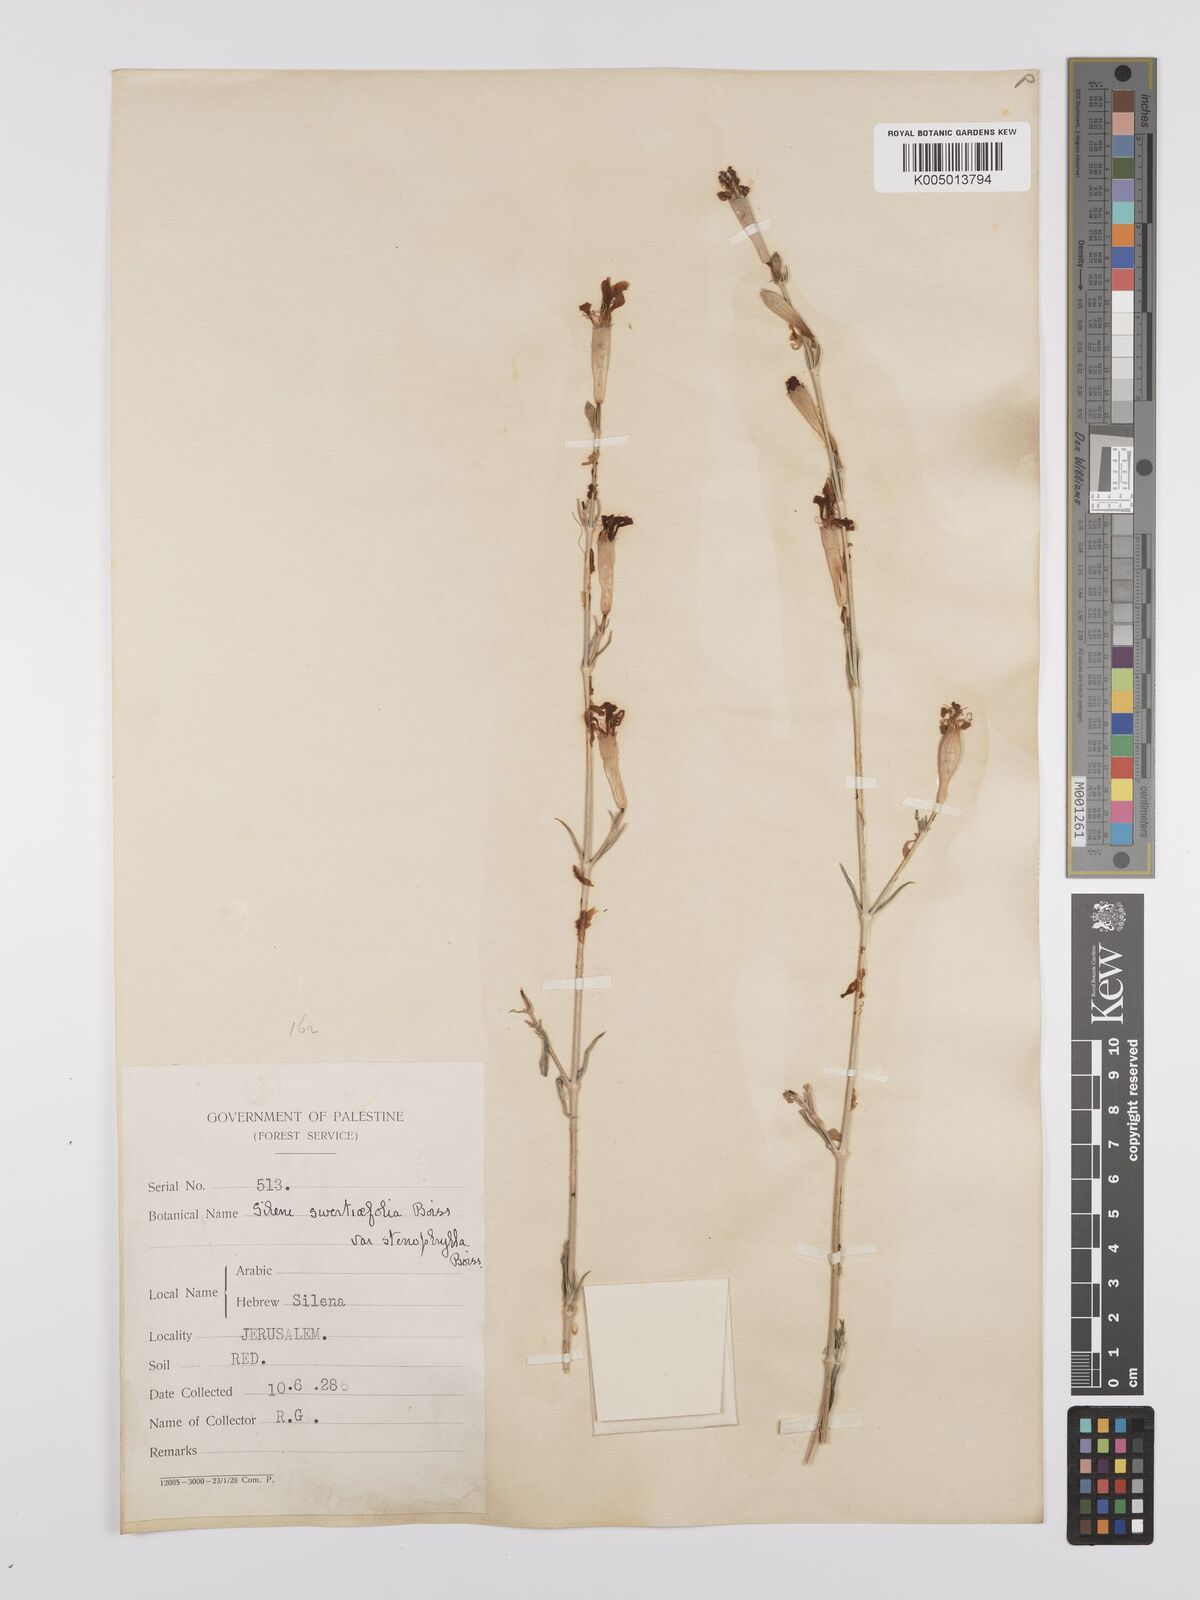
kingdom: Plantae
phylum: Tracheophyta
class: Magnoliopsida
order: Caryophyllales
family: Caryophyllaceae
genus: Silene
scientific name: Silene swertiifolia
